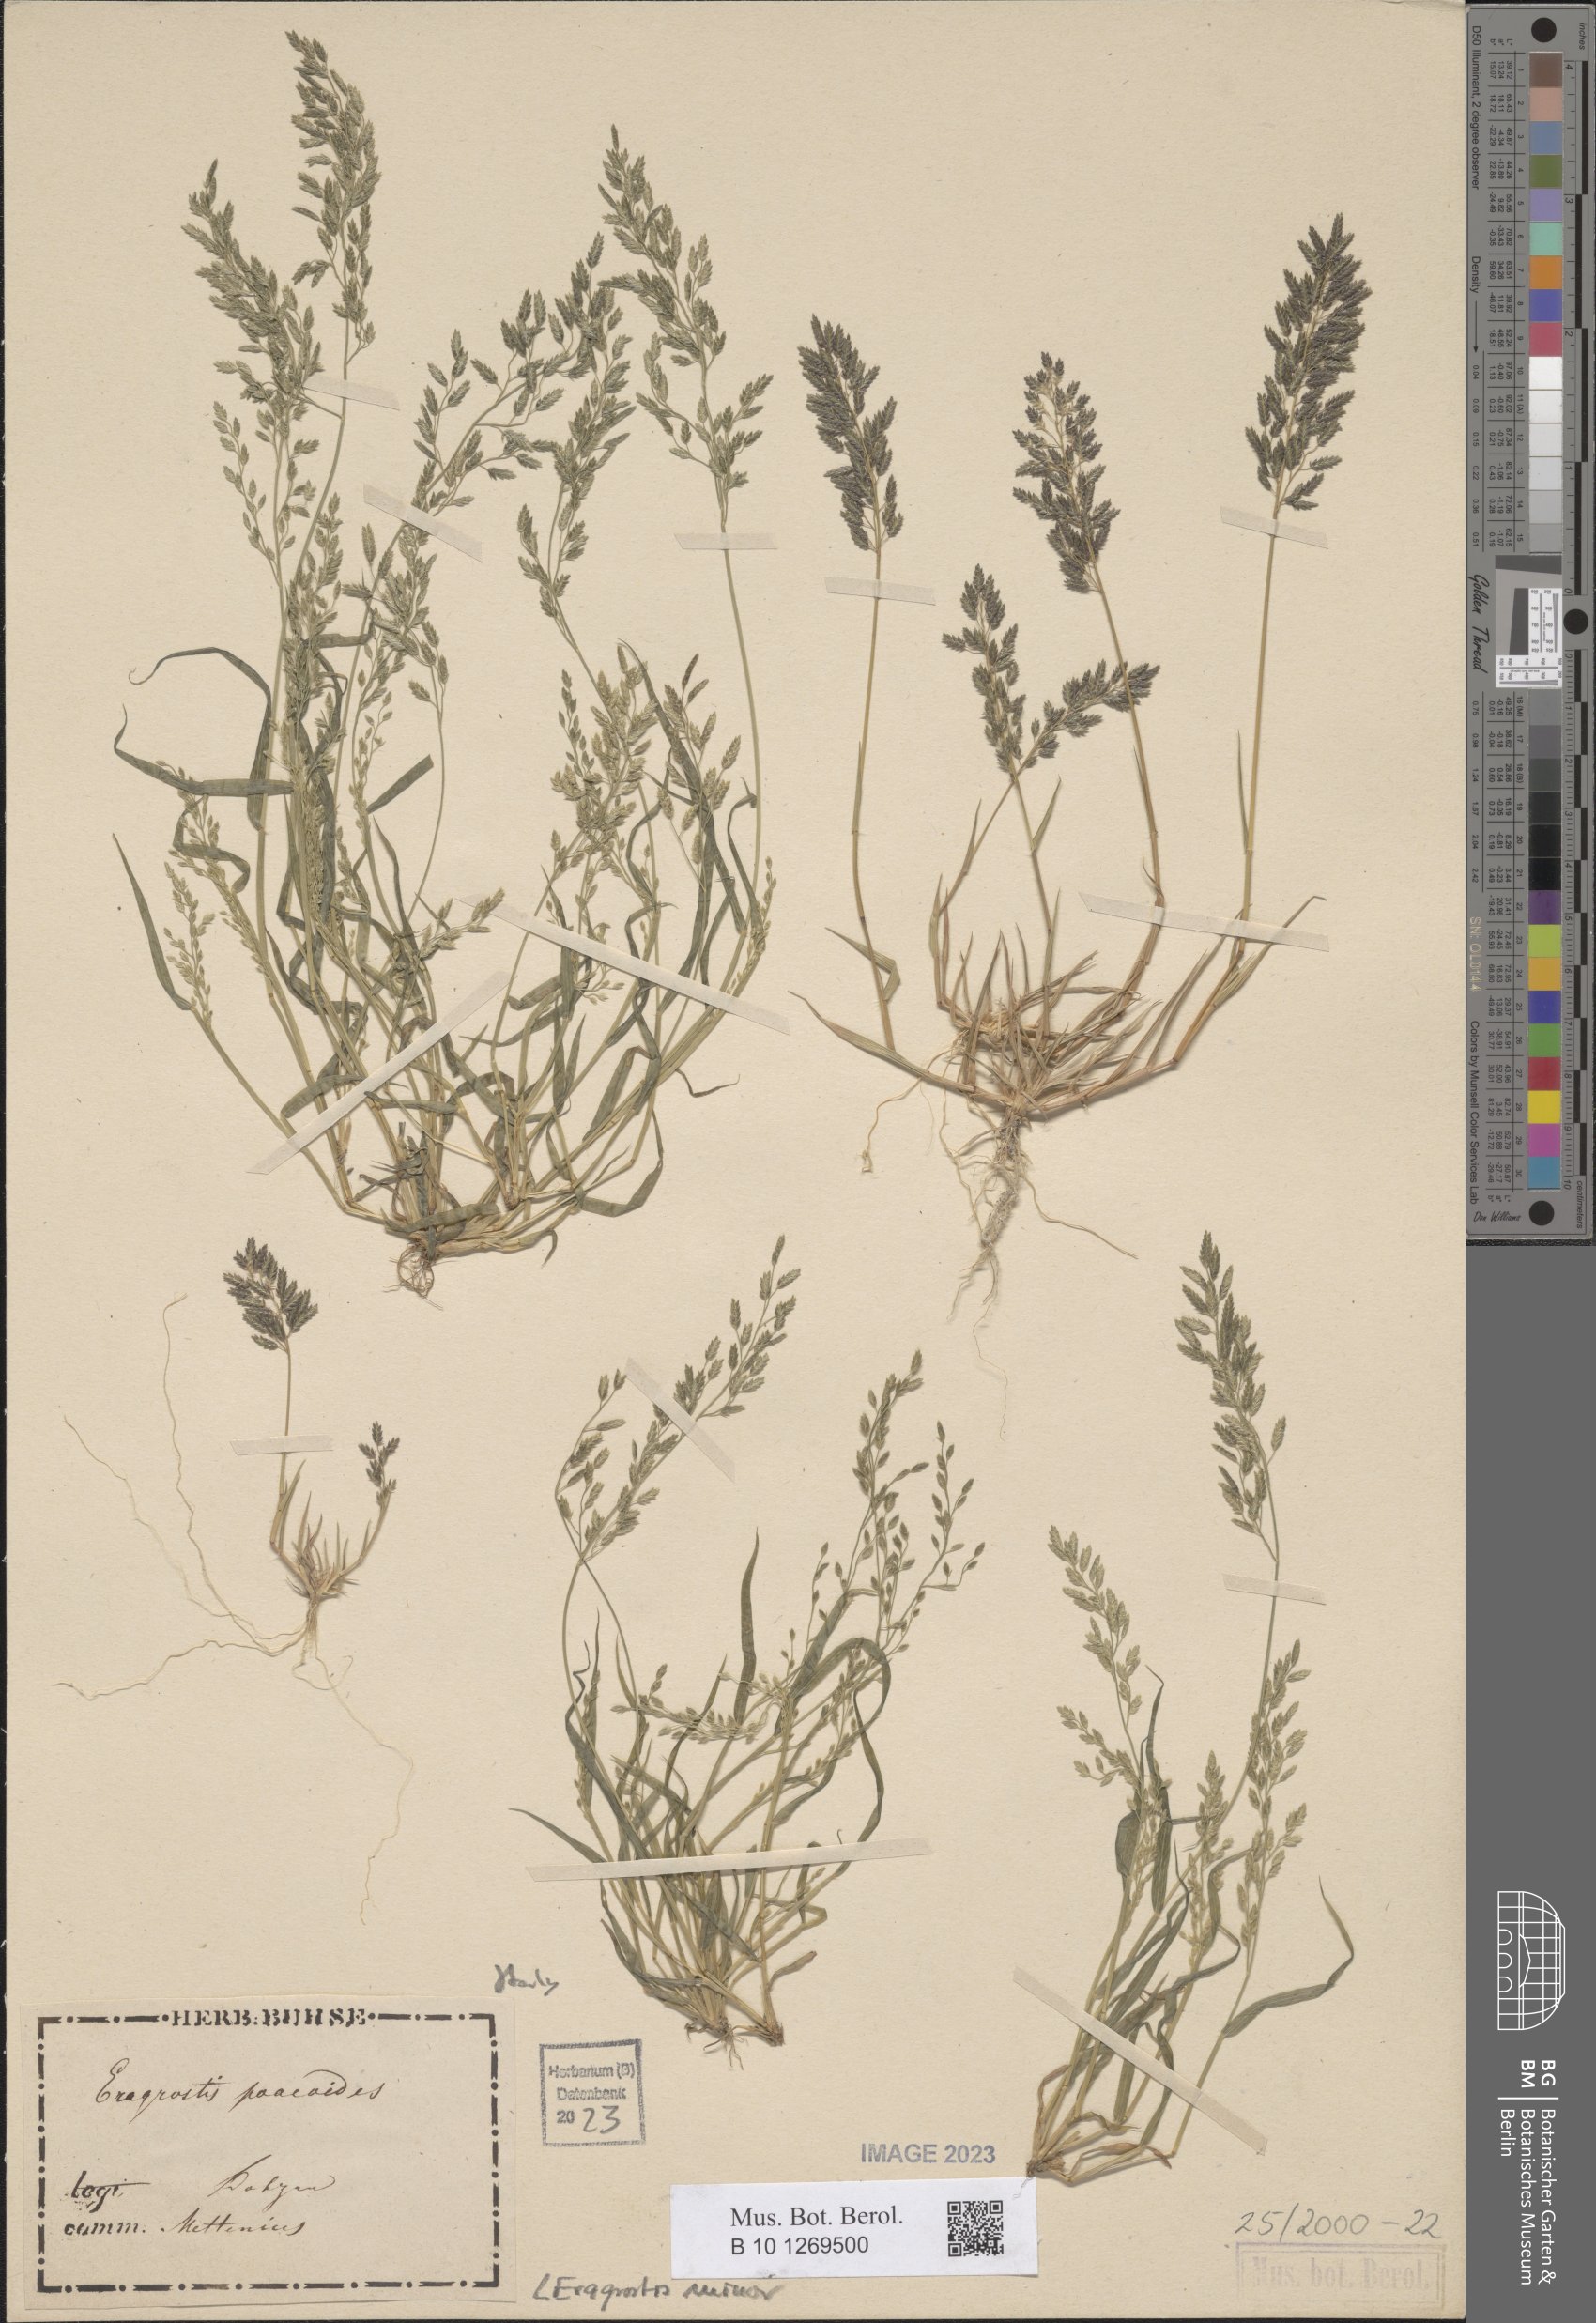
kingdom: Plantae
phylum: Tracheophyta
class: Liliopsida
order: Poales
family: Poaceae
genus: Eragrostis
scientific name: Eragrostis minor
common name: Small love-grass
